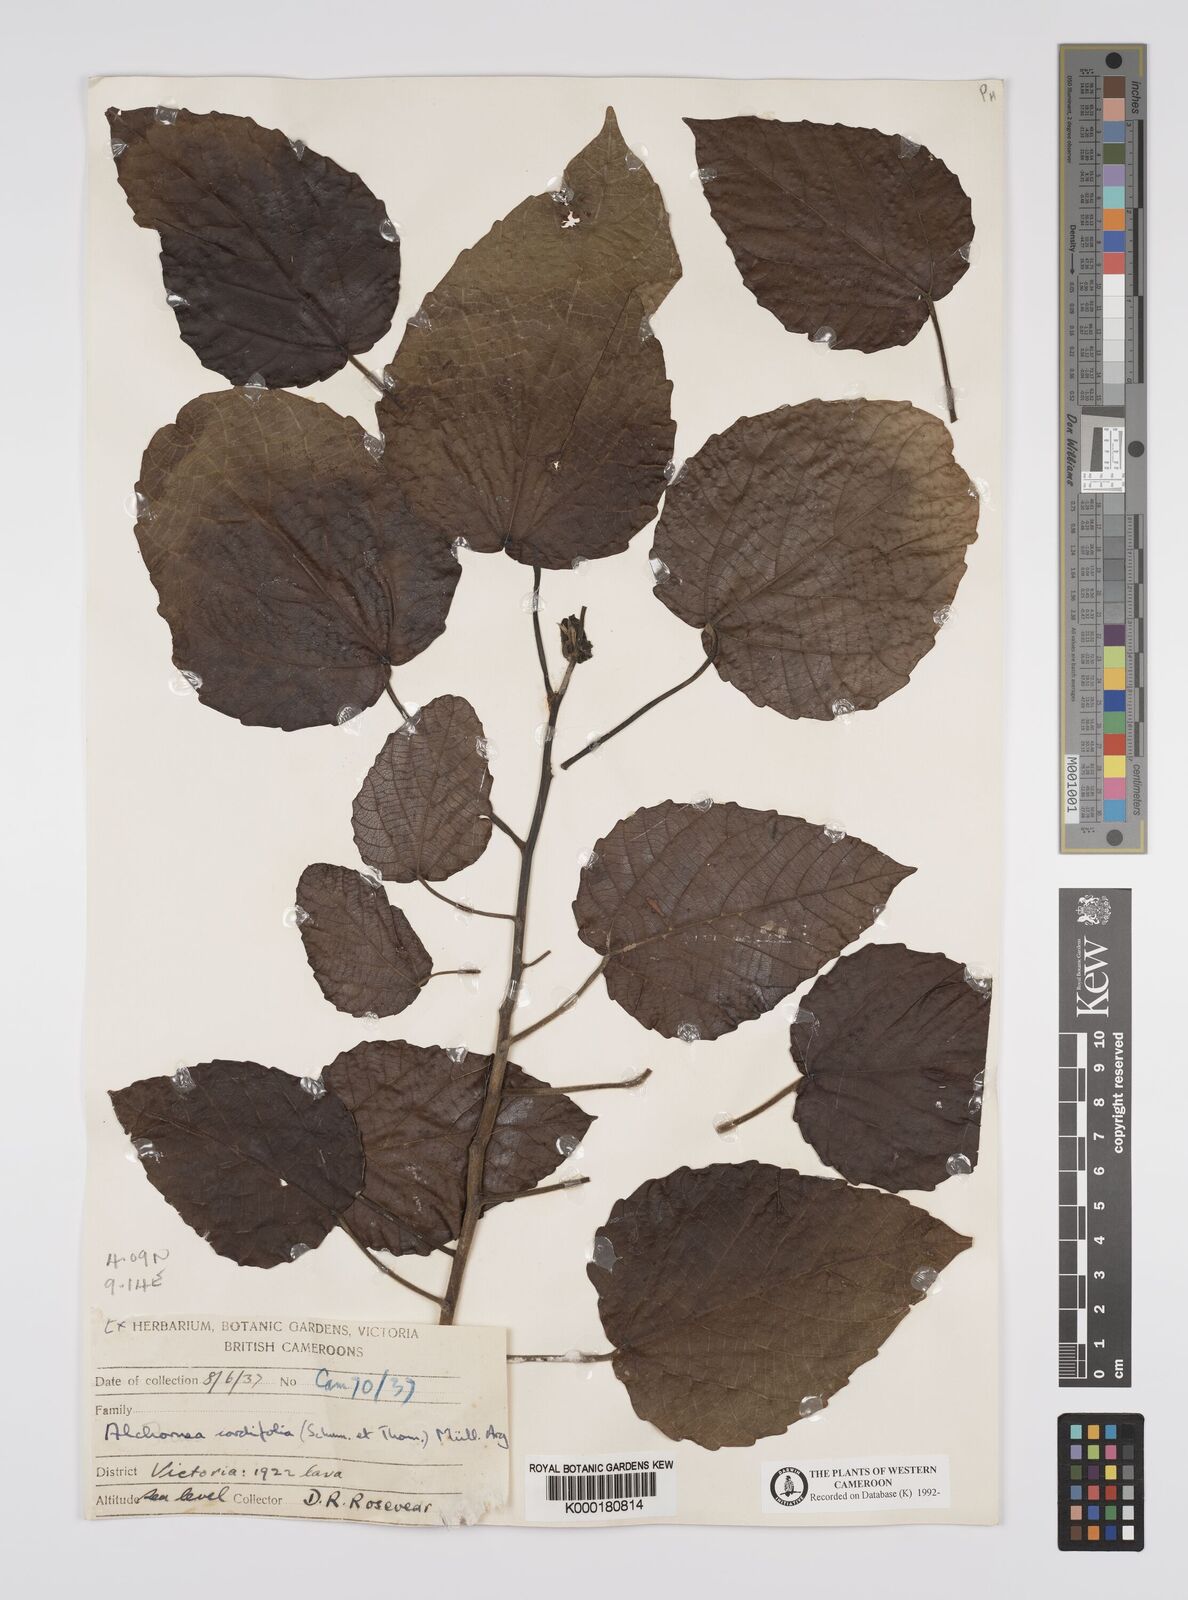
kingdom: Plantae
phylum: Tracheophyta
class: Magnoliopsida
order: Malpighiales
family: Euphorbiaceae
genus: Alchornea
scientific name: Alchornea
